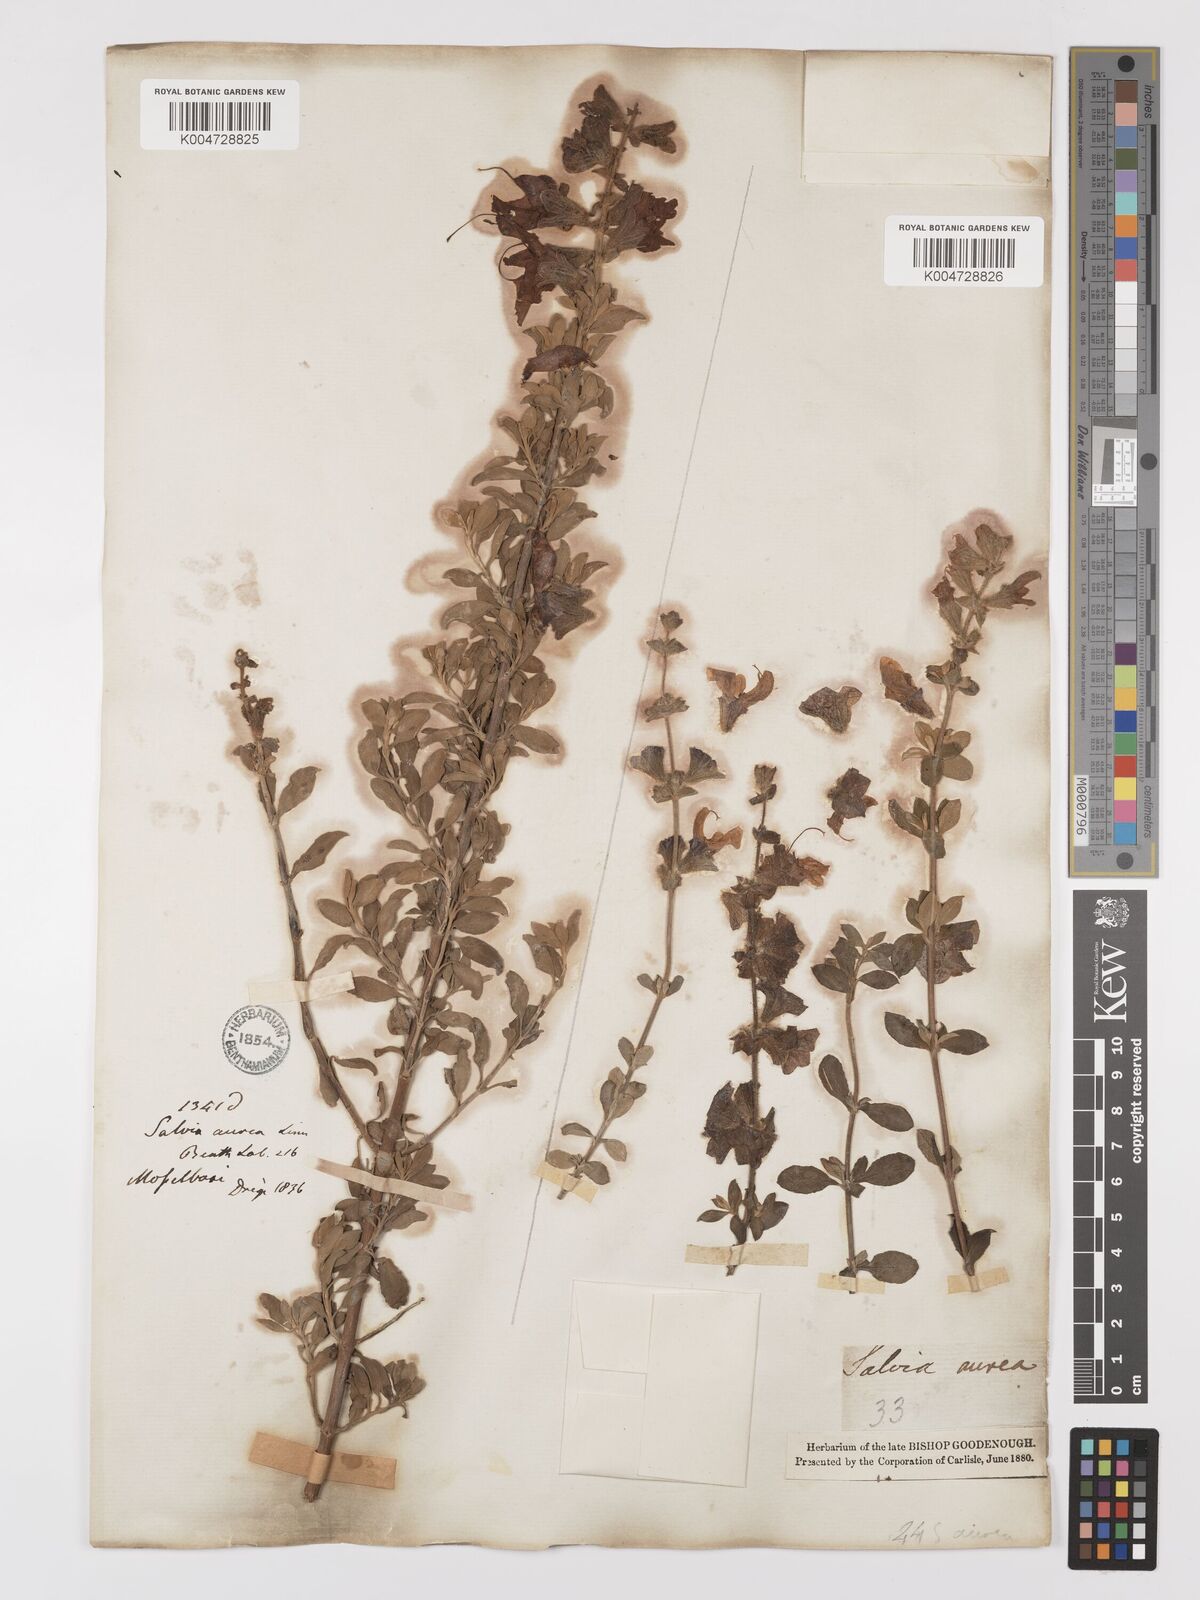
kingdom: Plantae
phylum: Tracheophyta
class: Magnoliopsida
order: Lamiales
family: Lamiaceae
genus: Salvia
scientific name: Salvia aurea
